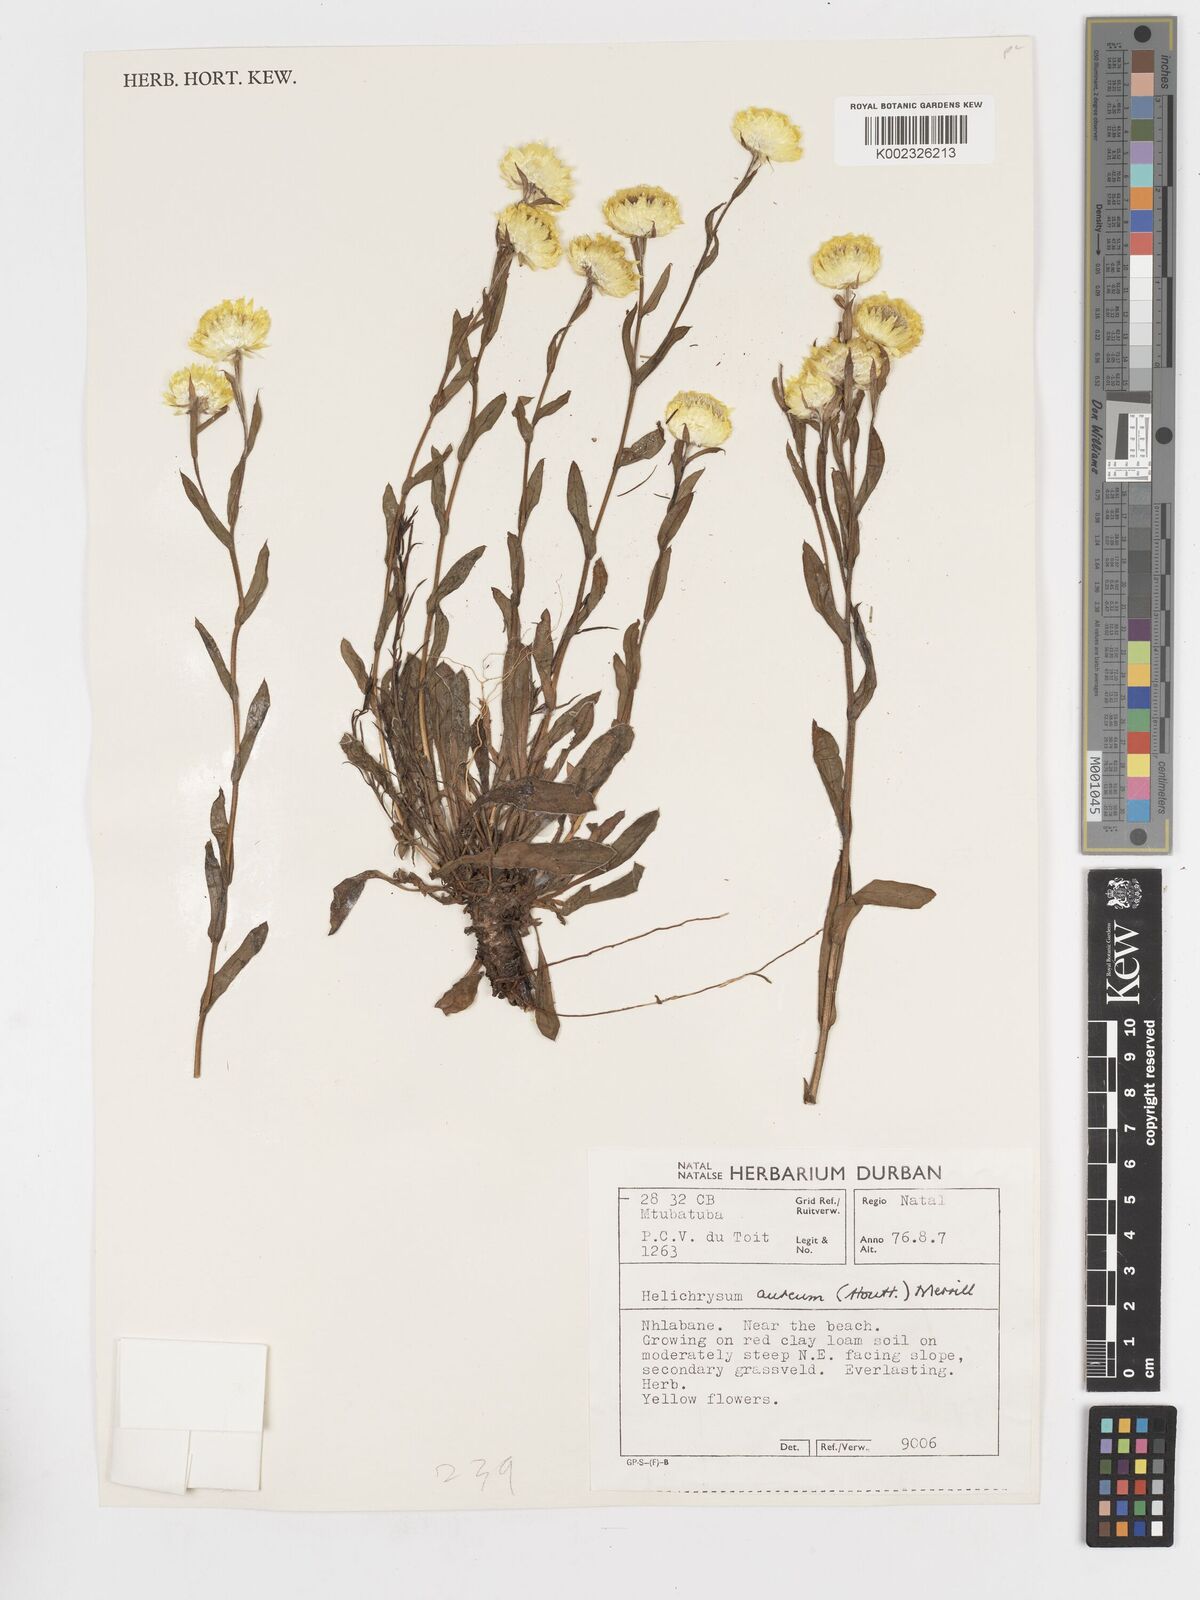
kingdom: Plantae
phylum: Tracheophyta
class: Magnoliopsida
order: Asterales
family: Asteraceae
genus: Helichrysum
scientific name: Helichrysum aureum
